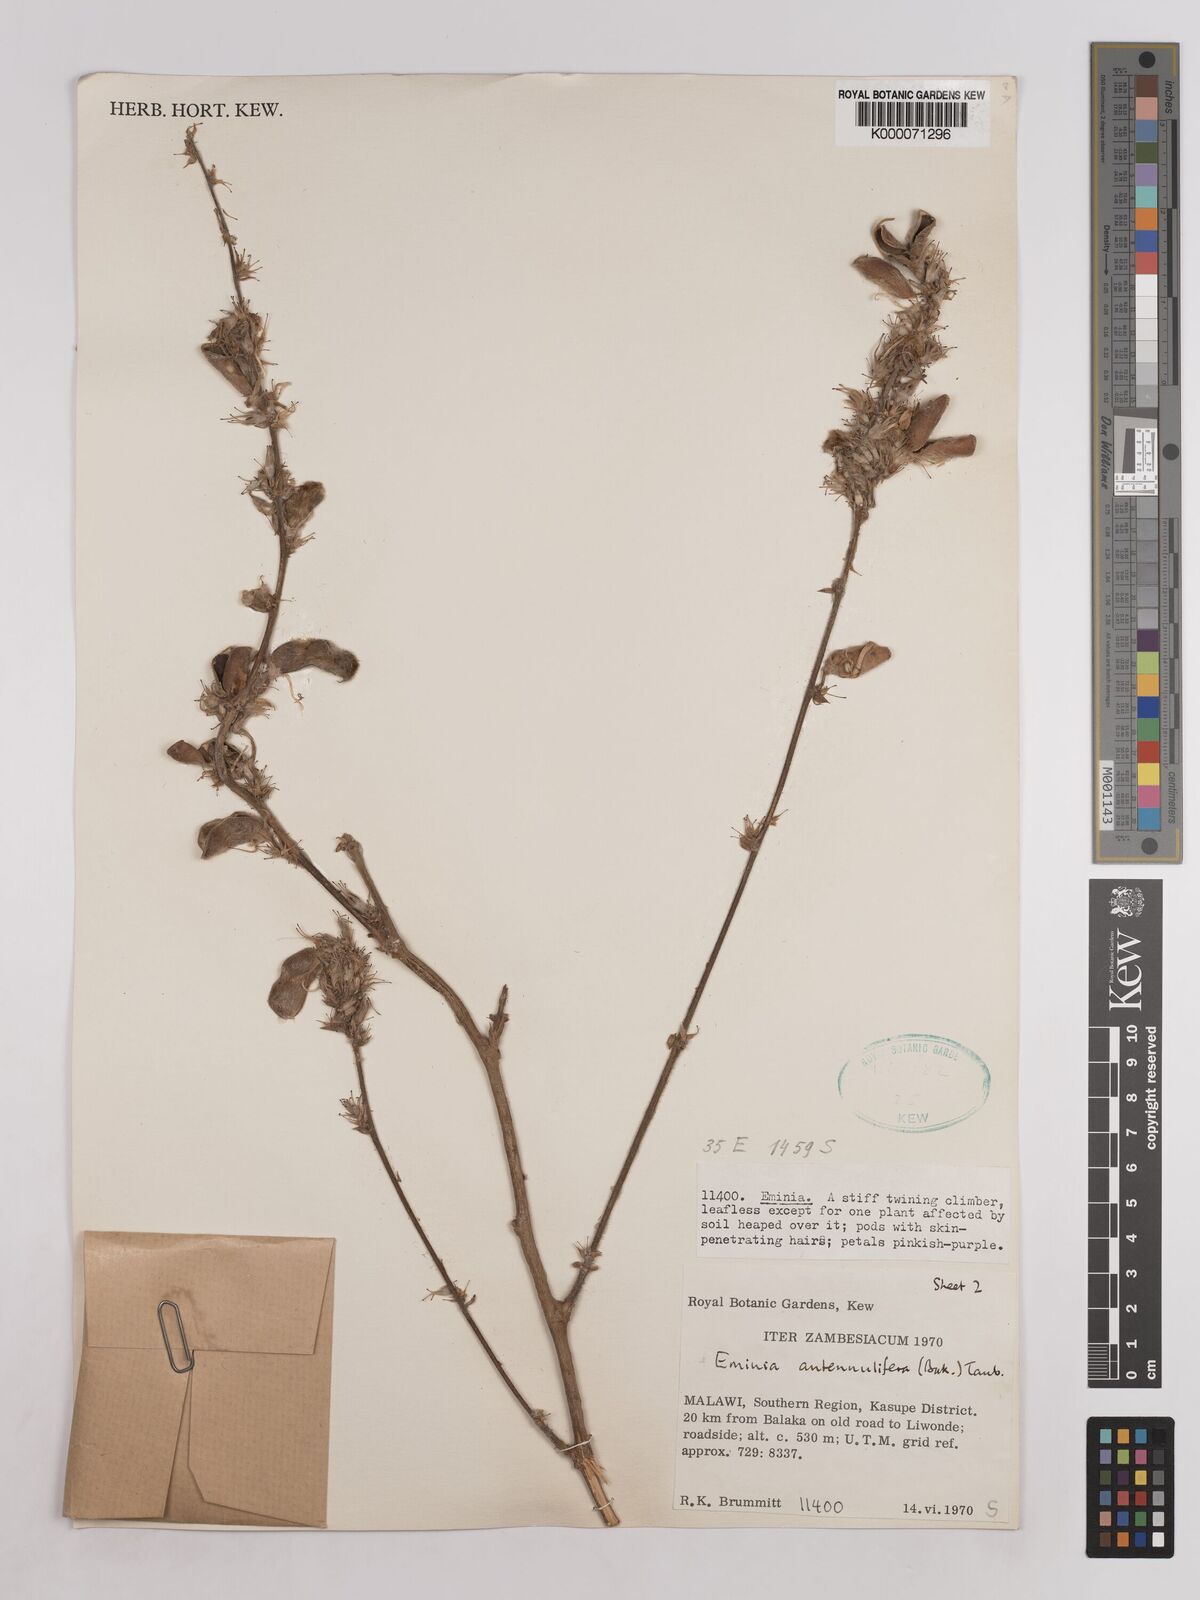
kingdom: Plantae
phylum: Tracheophyta
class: Magnoliopsida
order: Fabales
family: Fabaceae
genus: Eminia
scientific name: Eminia antennulifera
